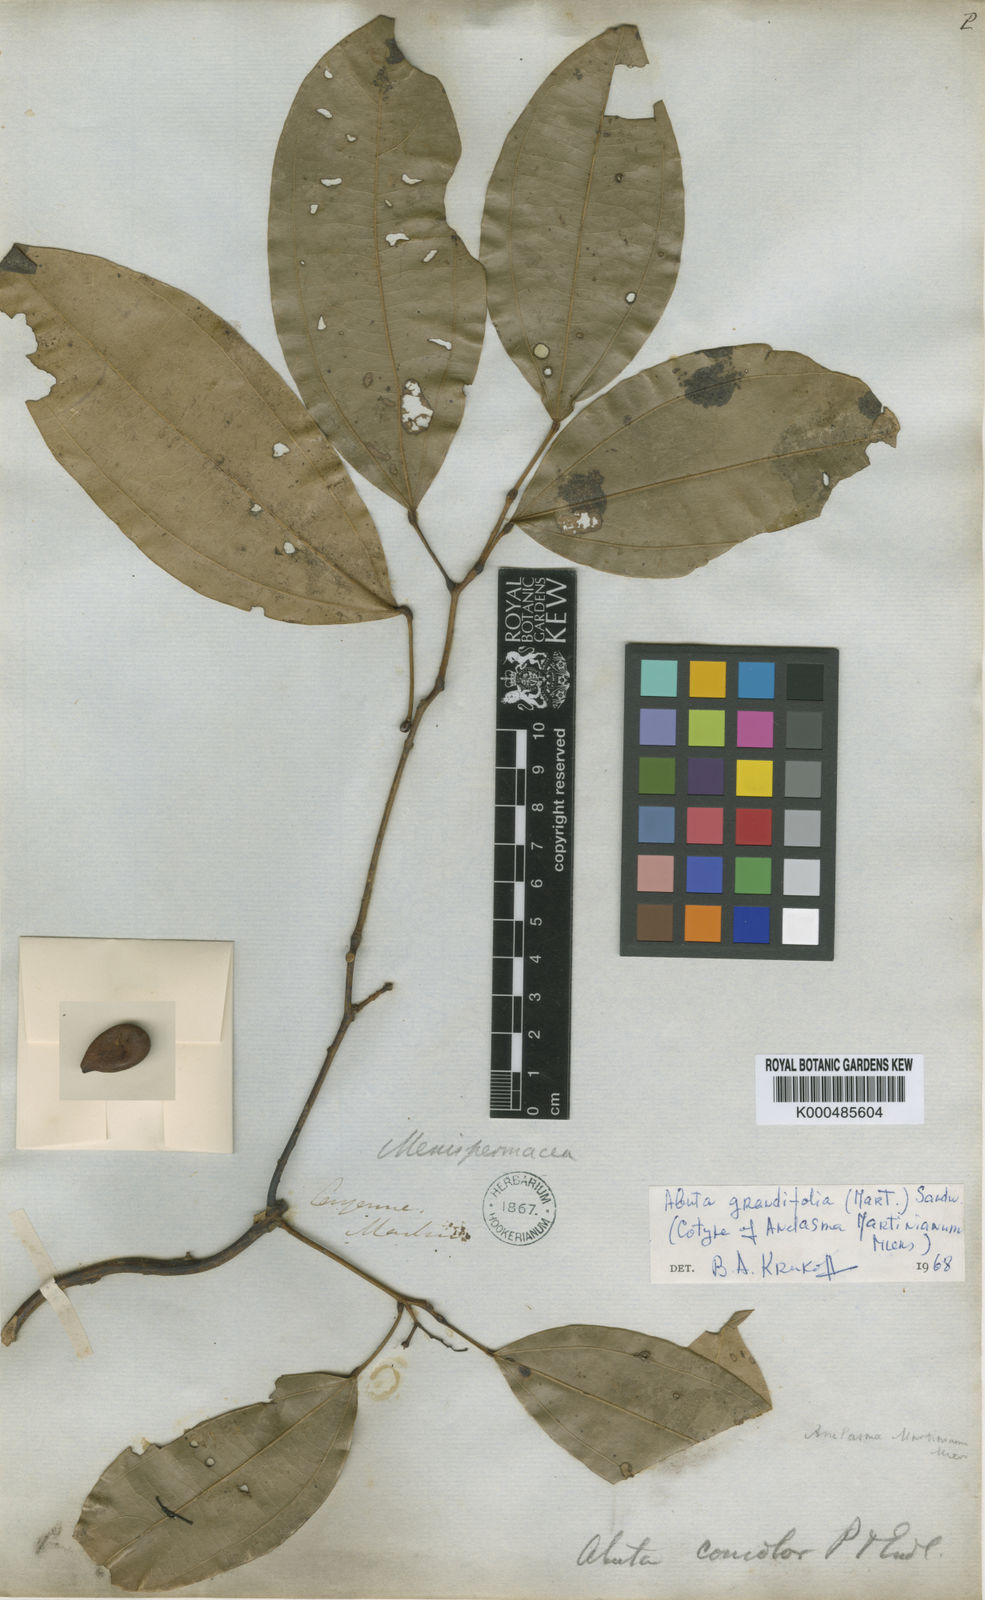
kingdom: Plantae
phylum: Tracheophyta
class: Magnoliopsida
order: Ranunculales
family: Menispermaceae
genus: Abuta
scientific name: Abuta grandifolia
